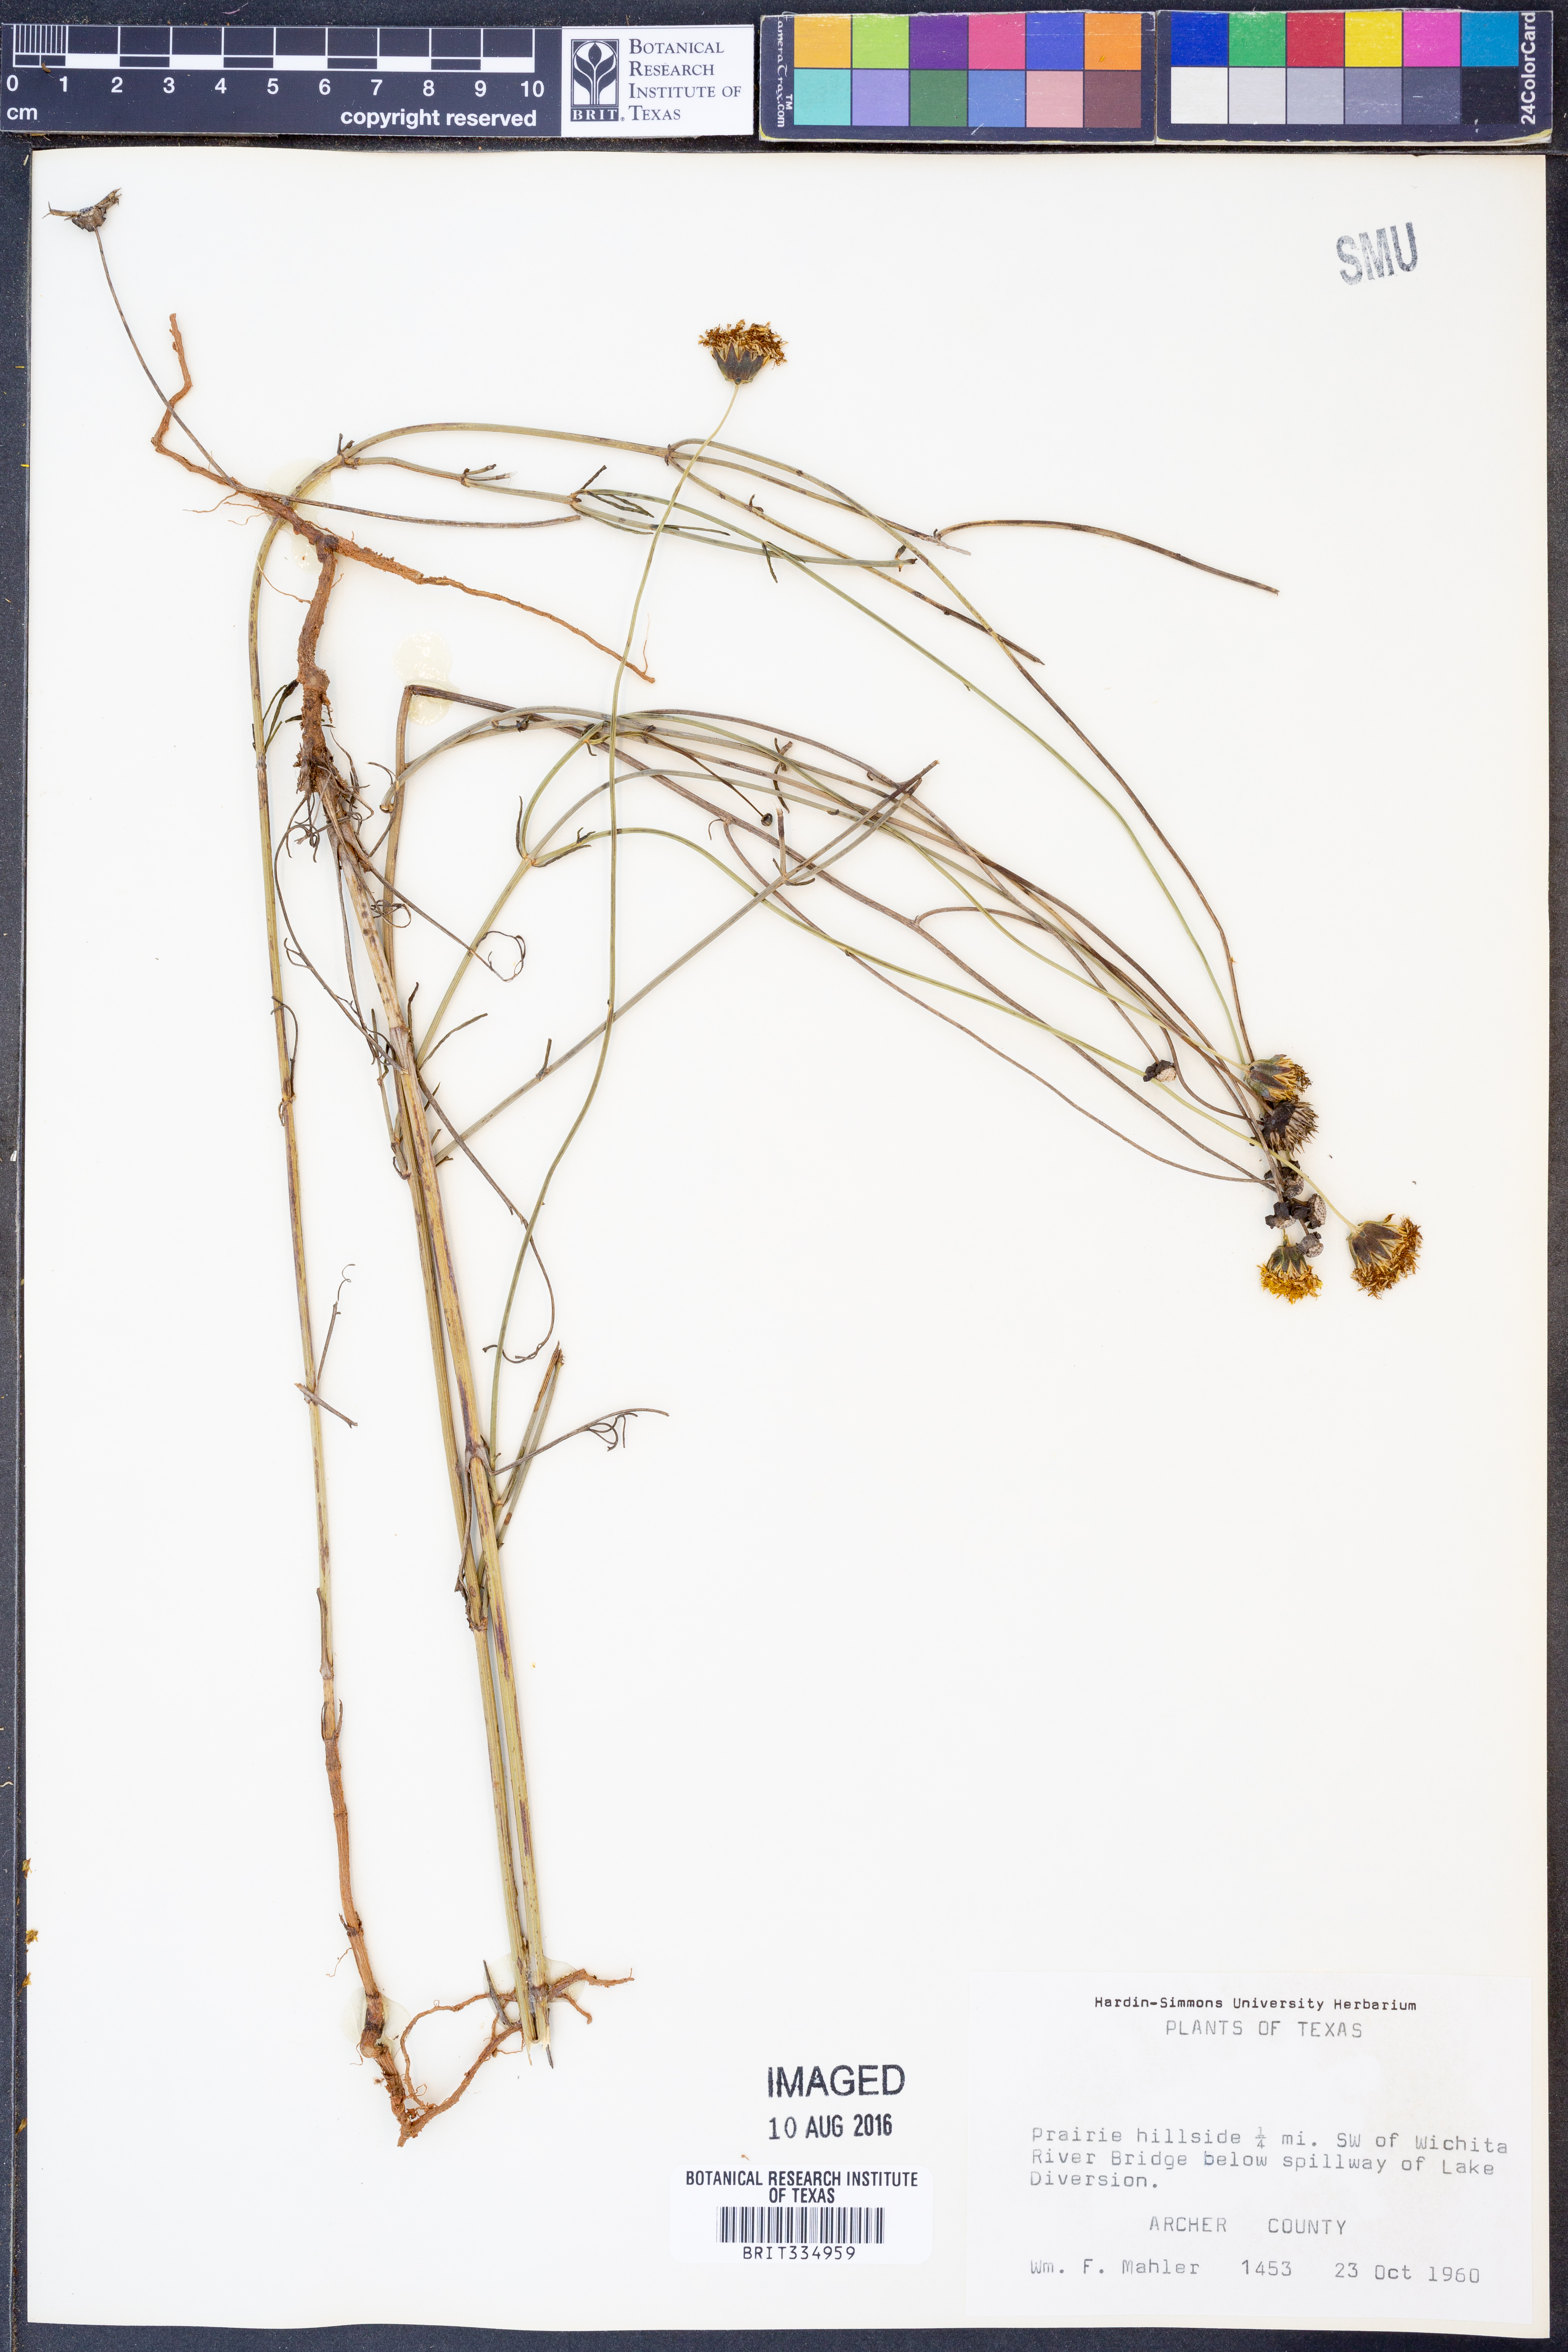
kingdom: Plantae
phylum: Tracheophyta
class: Magnoliopsida
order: Asterales
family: Asteraceae
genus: Thelesperma
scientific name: Thelesperma megapotamicum
